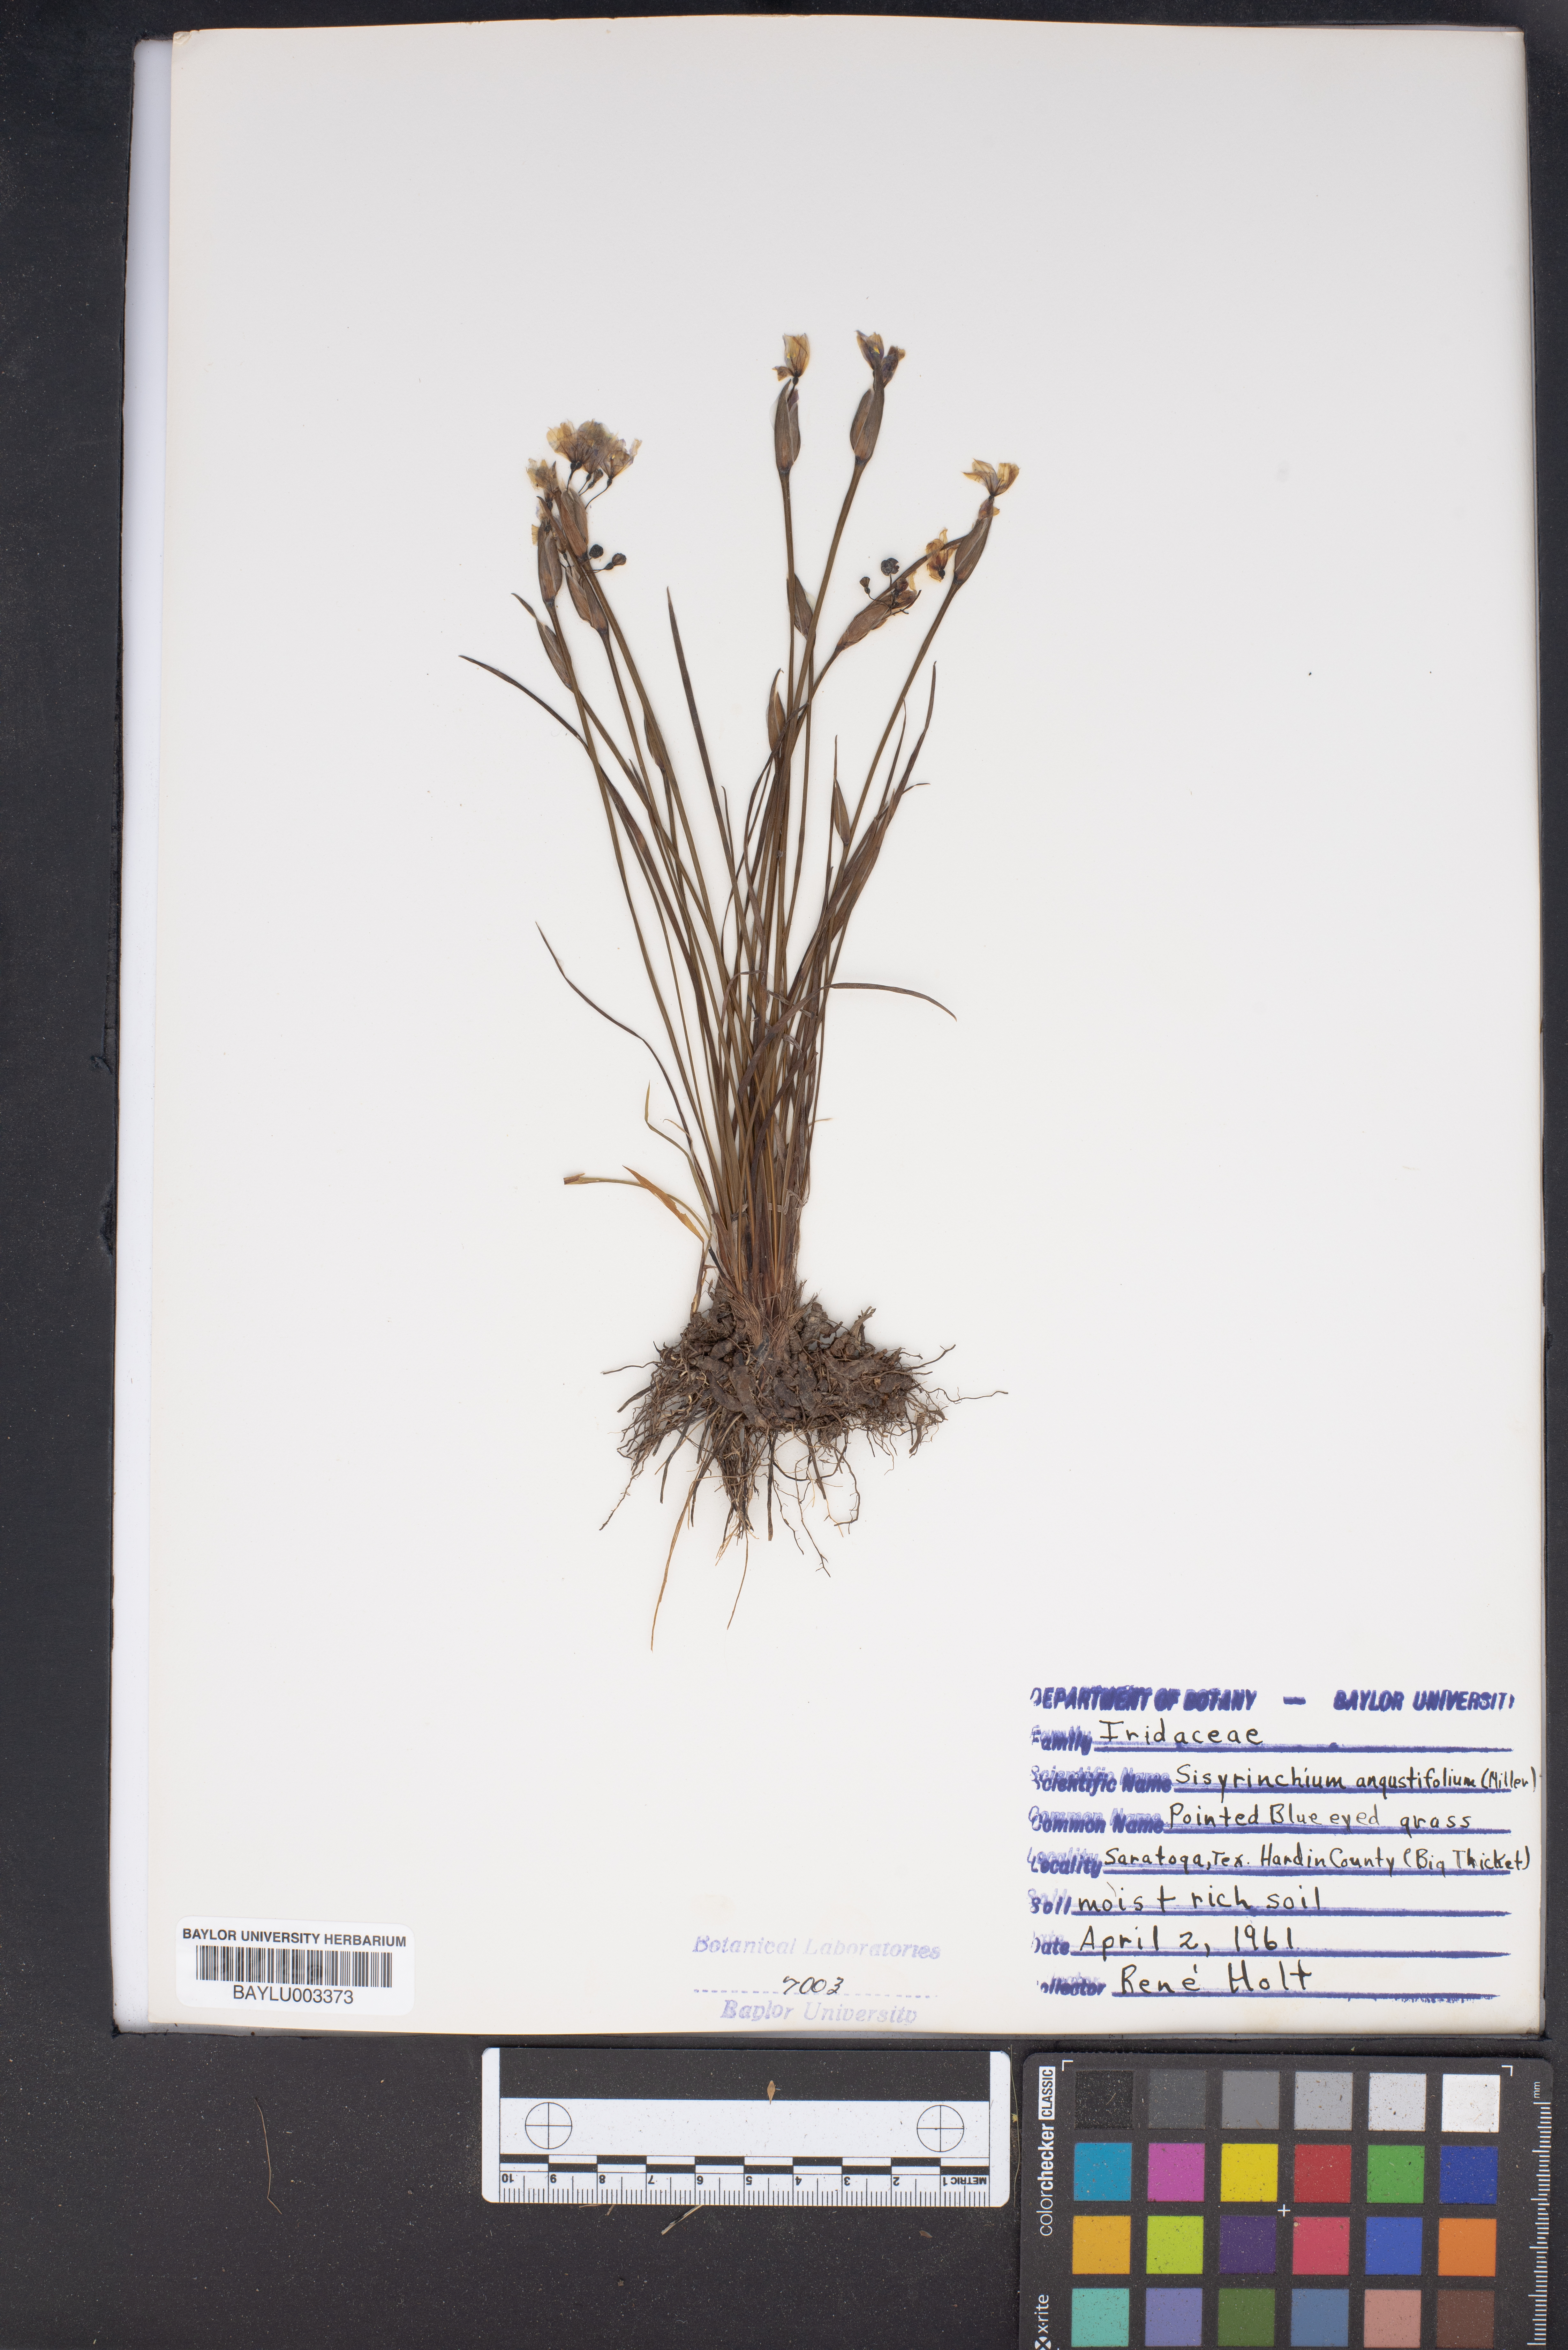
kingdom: Plantae
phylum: Tracheophyta
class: Liliopsida
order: Asparagales
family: Iridaceae
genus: Sisyrinchium
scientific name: Sisyrinchium angustifolium
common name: Narrow-leaf blue-eyed-grass
